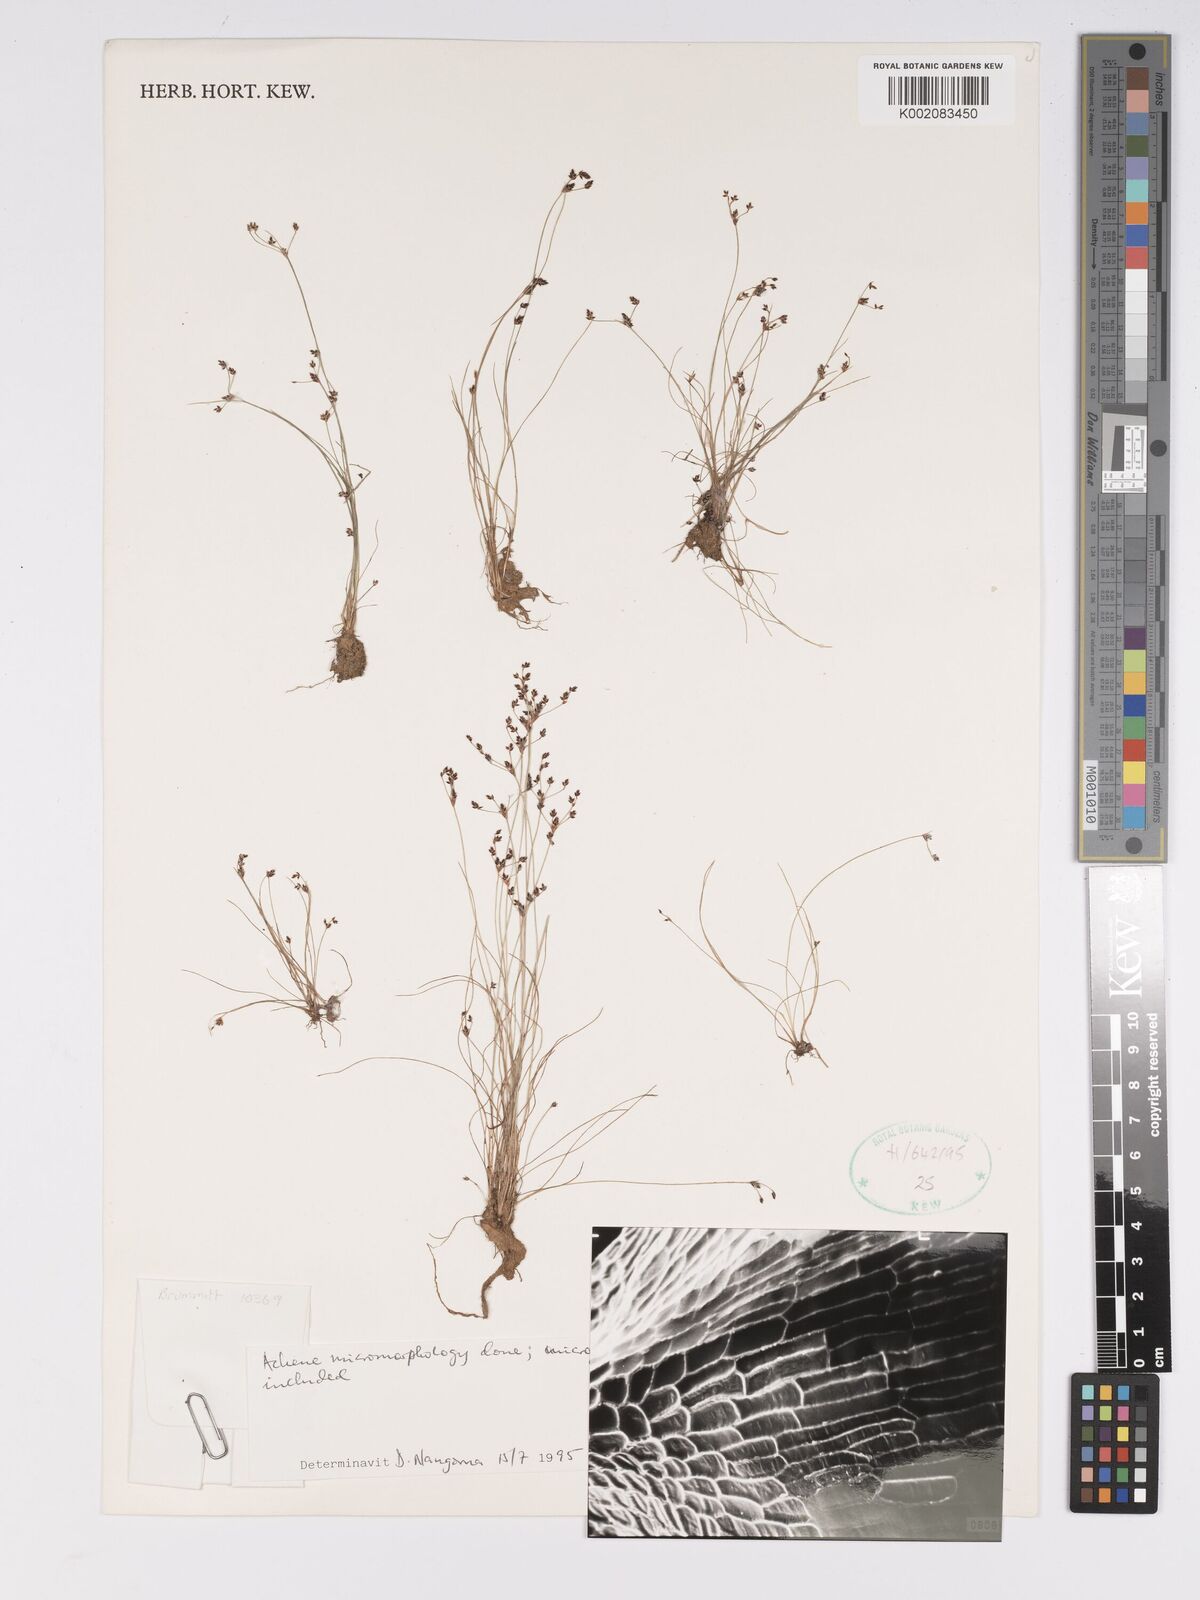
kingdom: Plantae
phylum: Tracheophyta
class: Liliopsida
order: Poales
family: Cyperaceae
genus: Bulbostylis
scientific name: Bulbostylis capillaris
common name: Densetuft hairsedge
